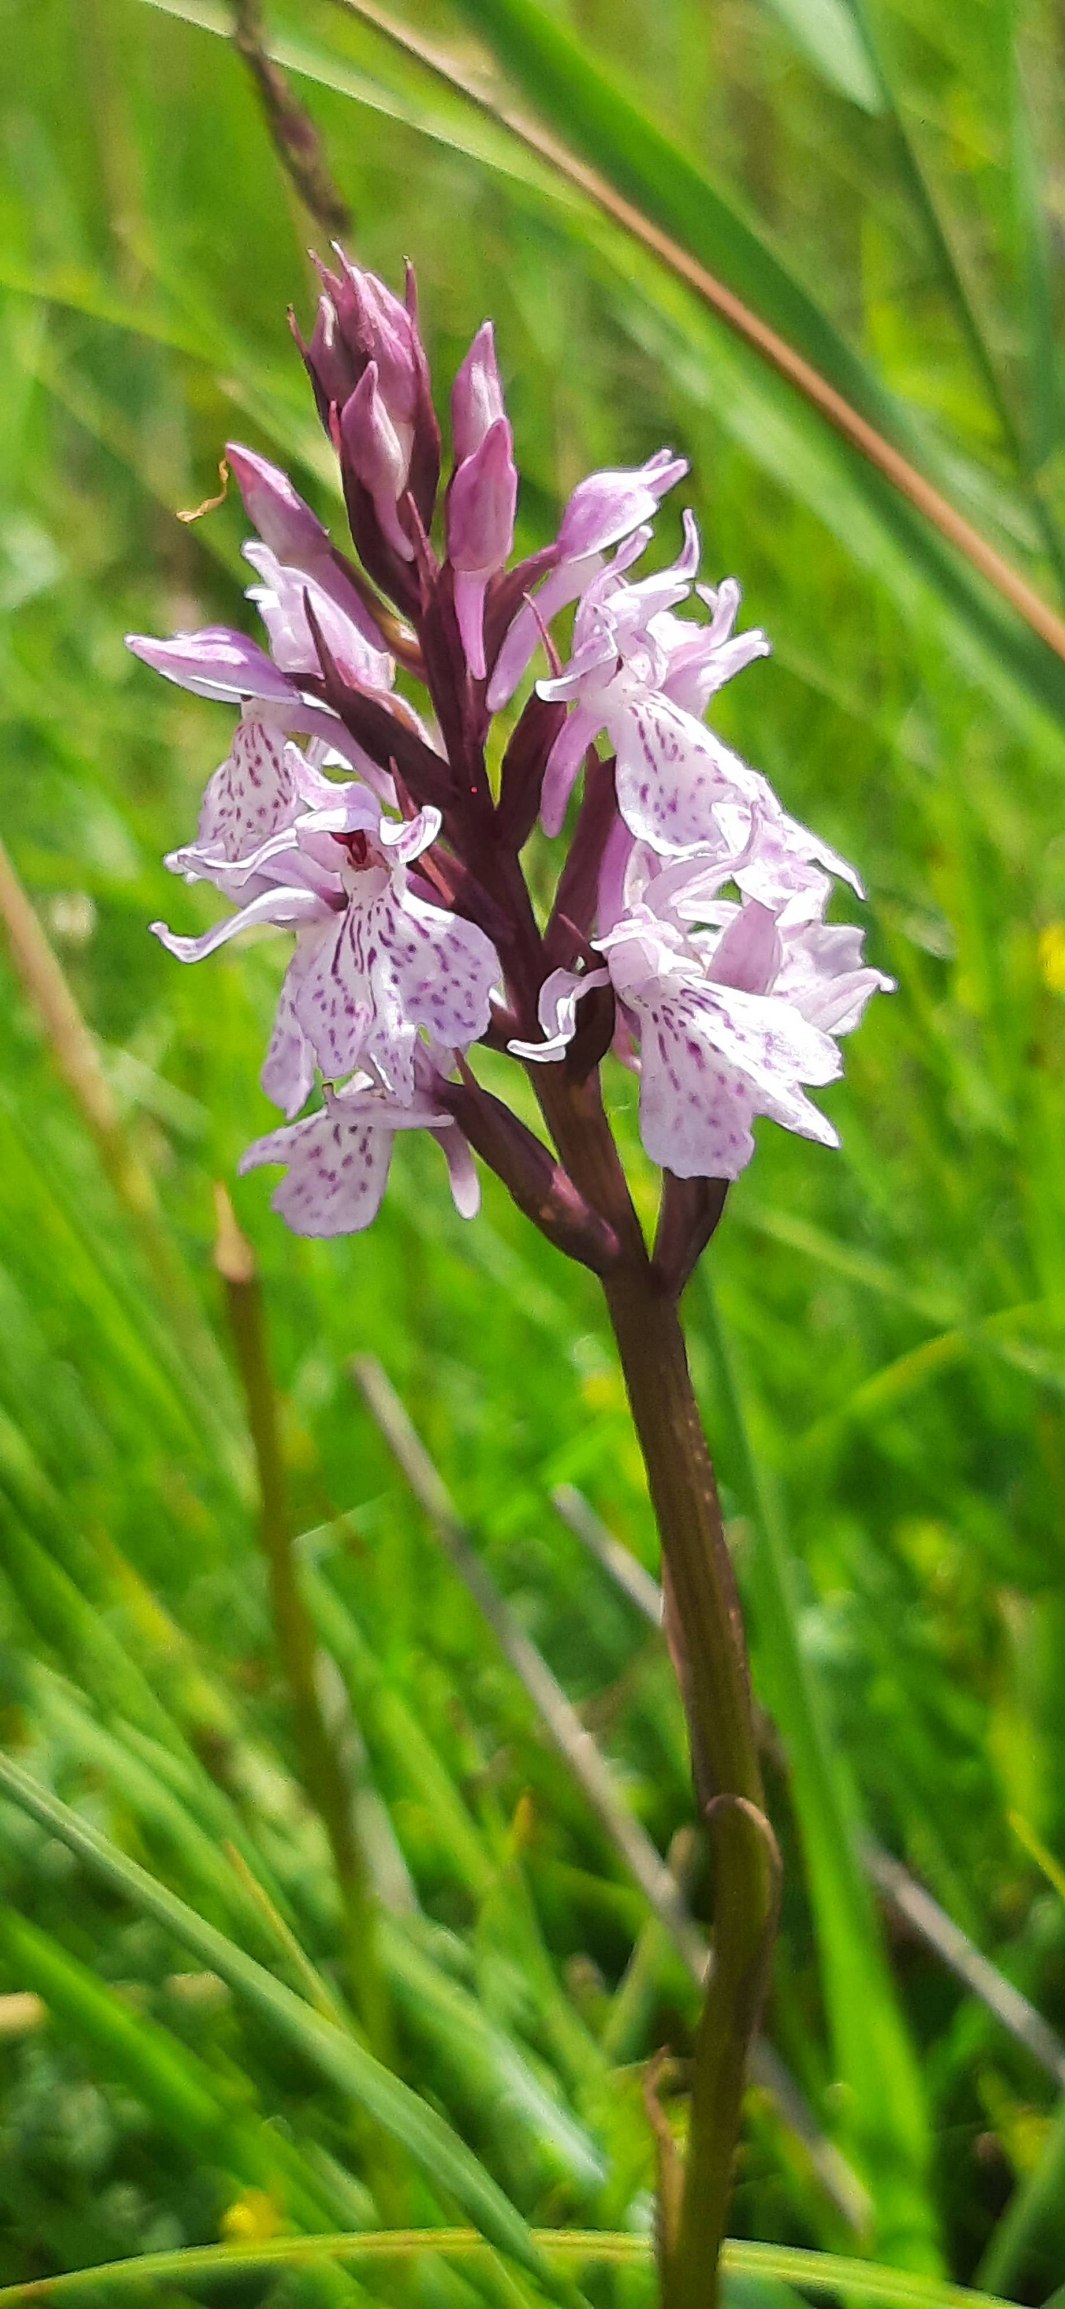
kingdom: Plantae
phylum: Tracheophyta
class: Liliopsida
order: Asparagales
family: Orchidaceae
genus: Dactylorhiza
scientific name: Dactylorhiza maculata
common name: Plettet gøgeurt
